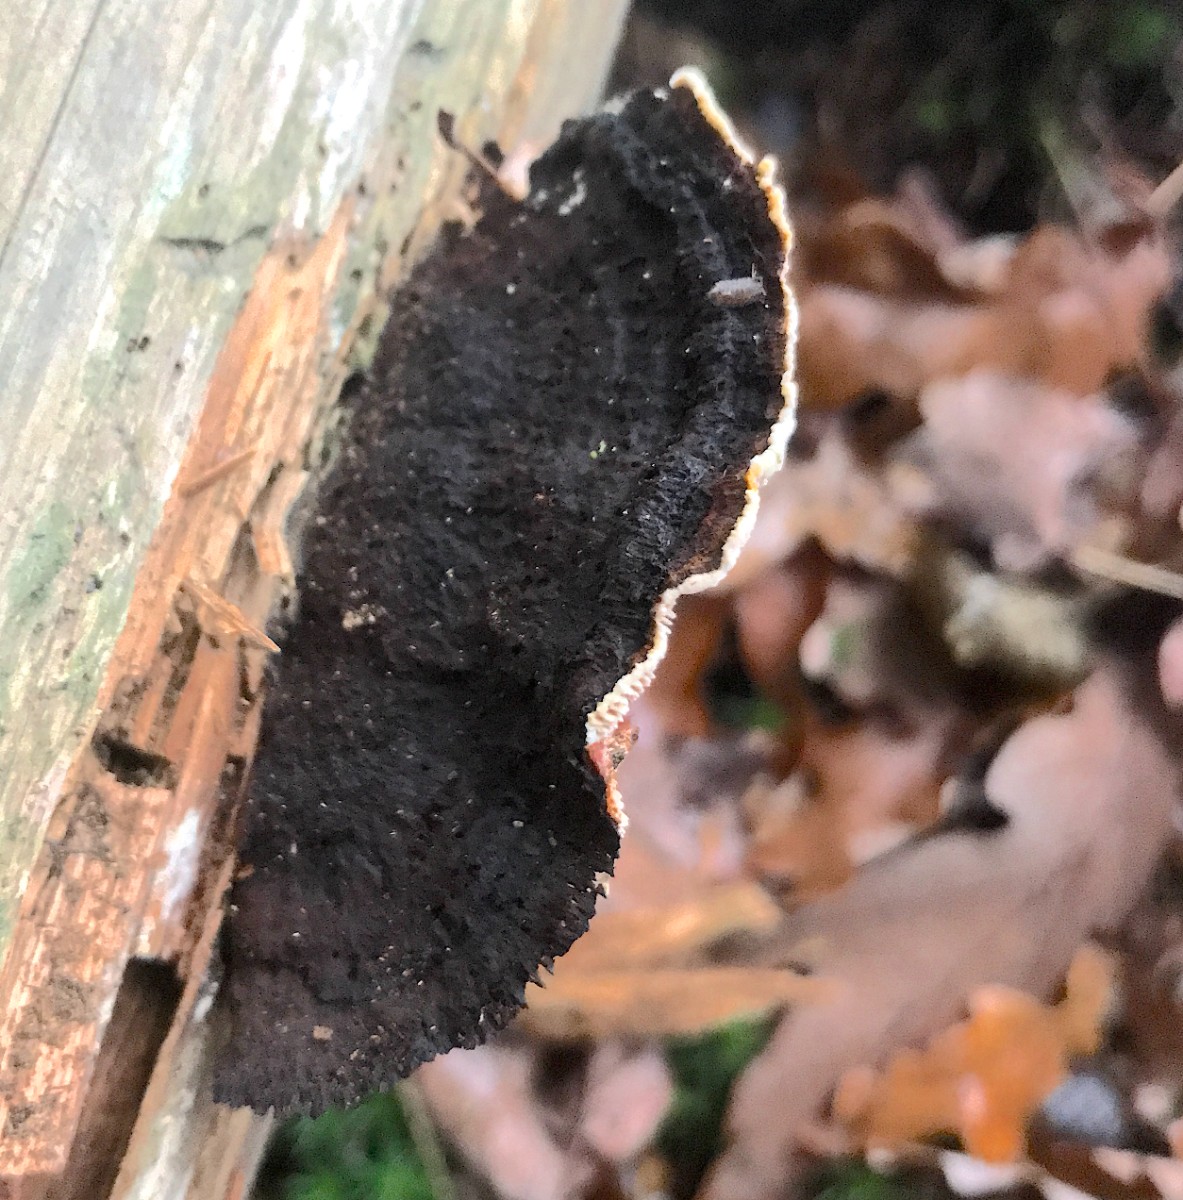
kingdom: Fungi
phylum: Basidiomycota
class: Agaricomycetes
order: Gloeophyllales
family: Gloeophyllaceae
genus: Gloeophyllum
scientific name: Gloeophyllum sepiarium
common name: fyrre-korkhat
